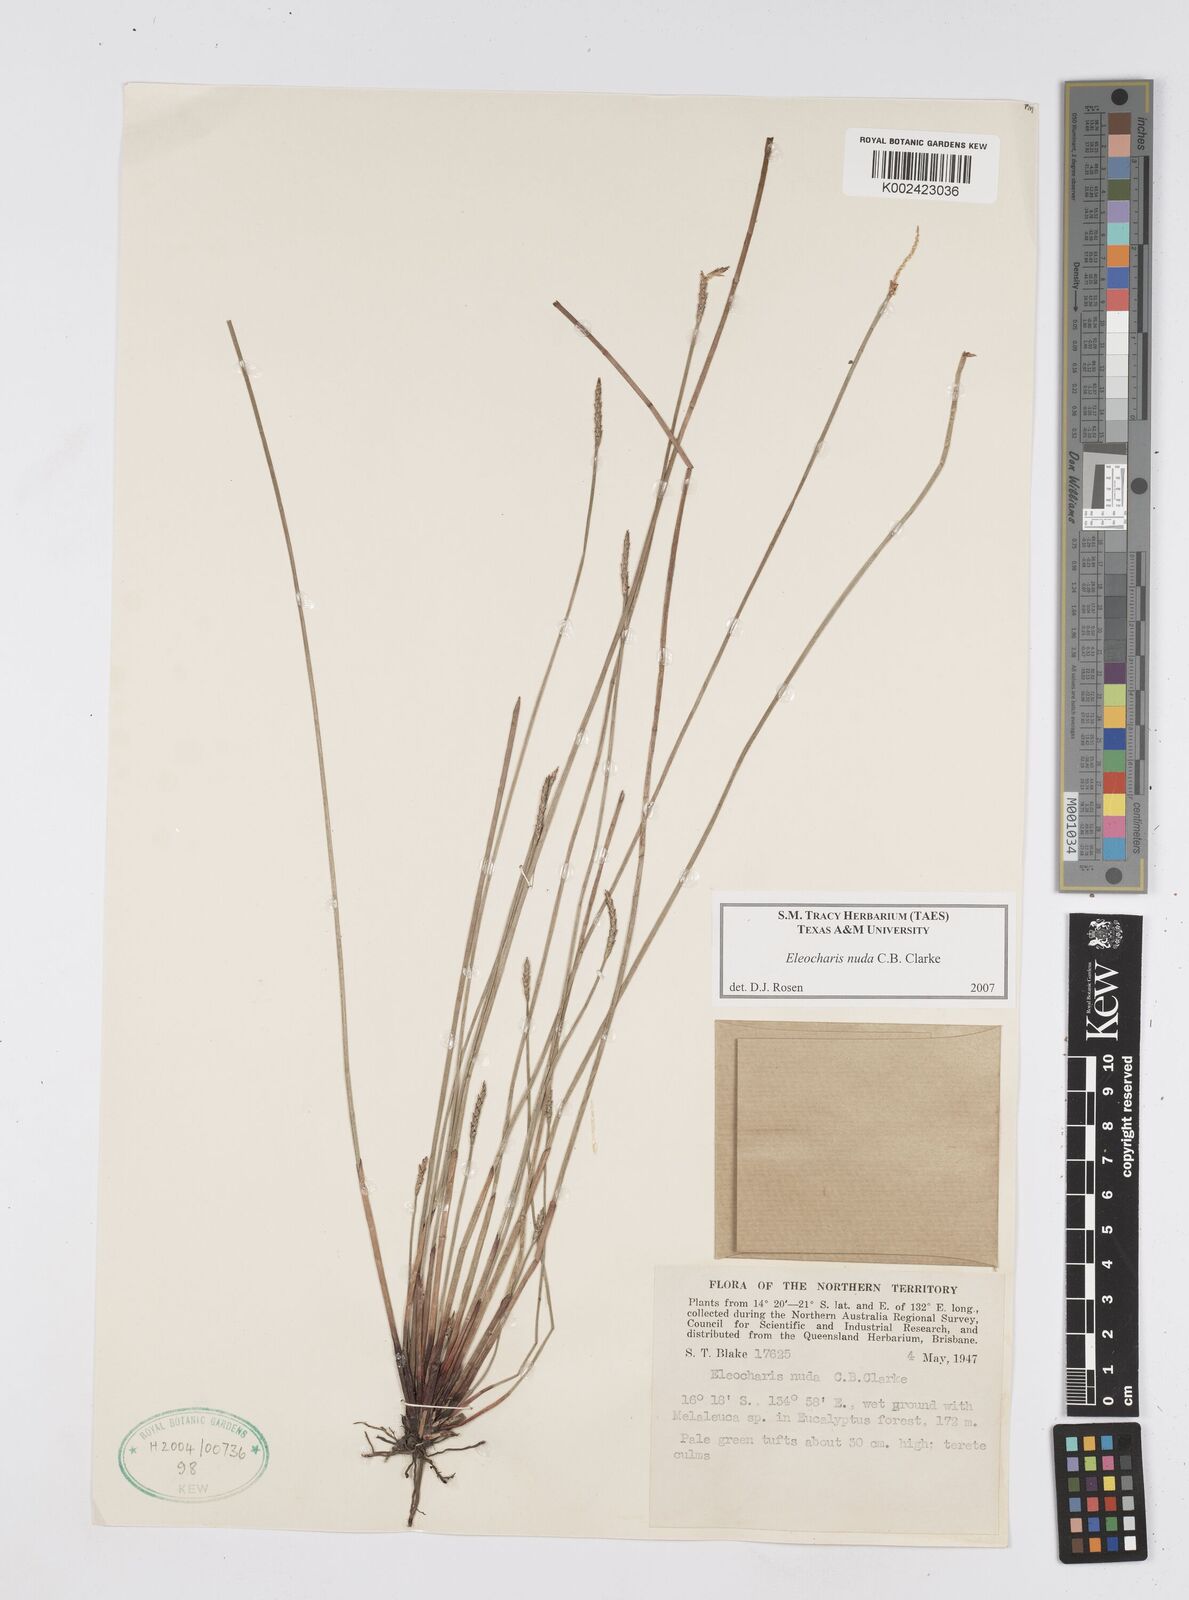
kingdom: Plantae
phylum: Tracheophyta
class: Liliopsida
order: Poales
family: Cyperaceae
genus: Eleocharis
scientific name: Eleocharis nuda
